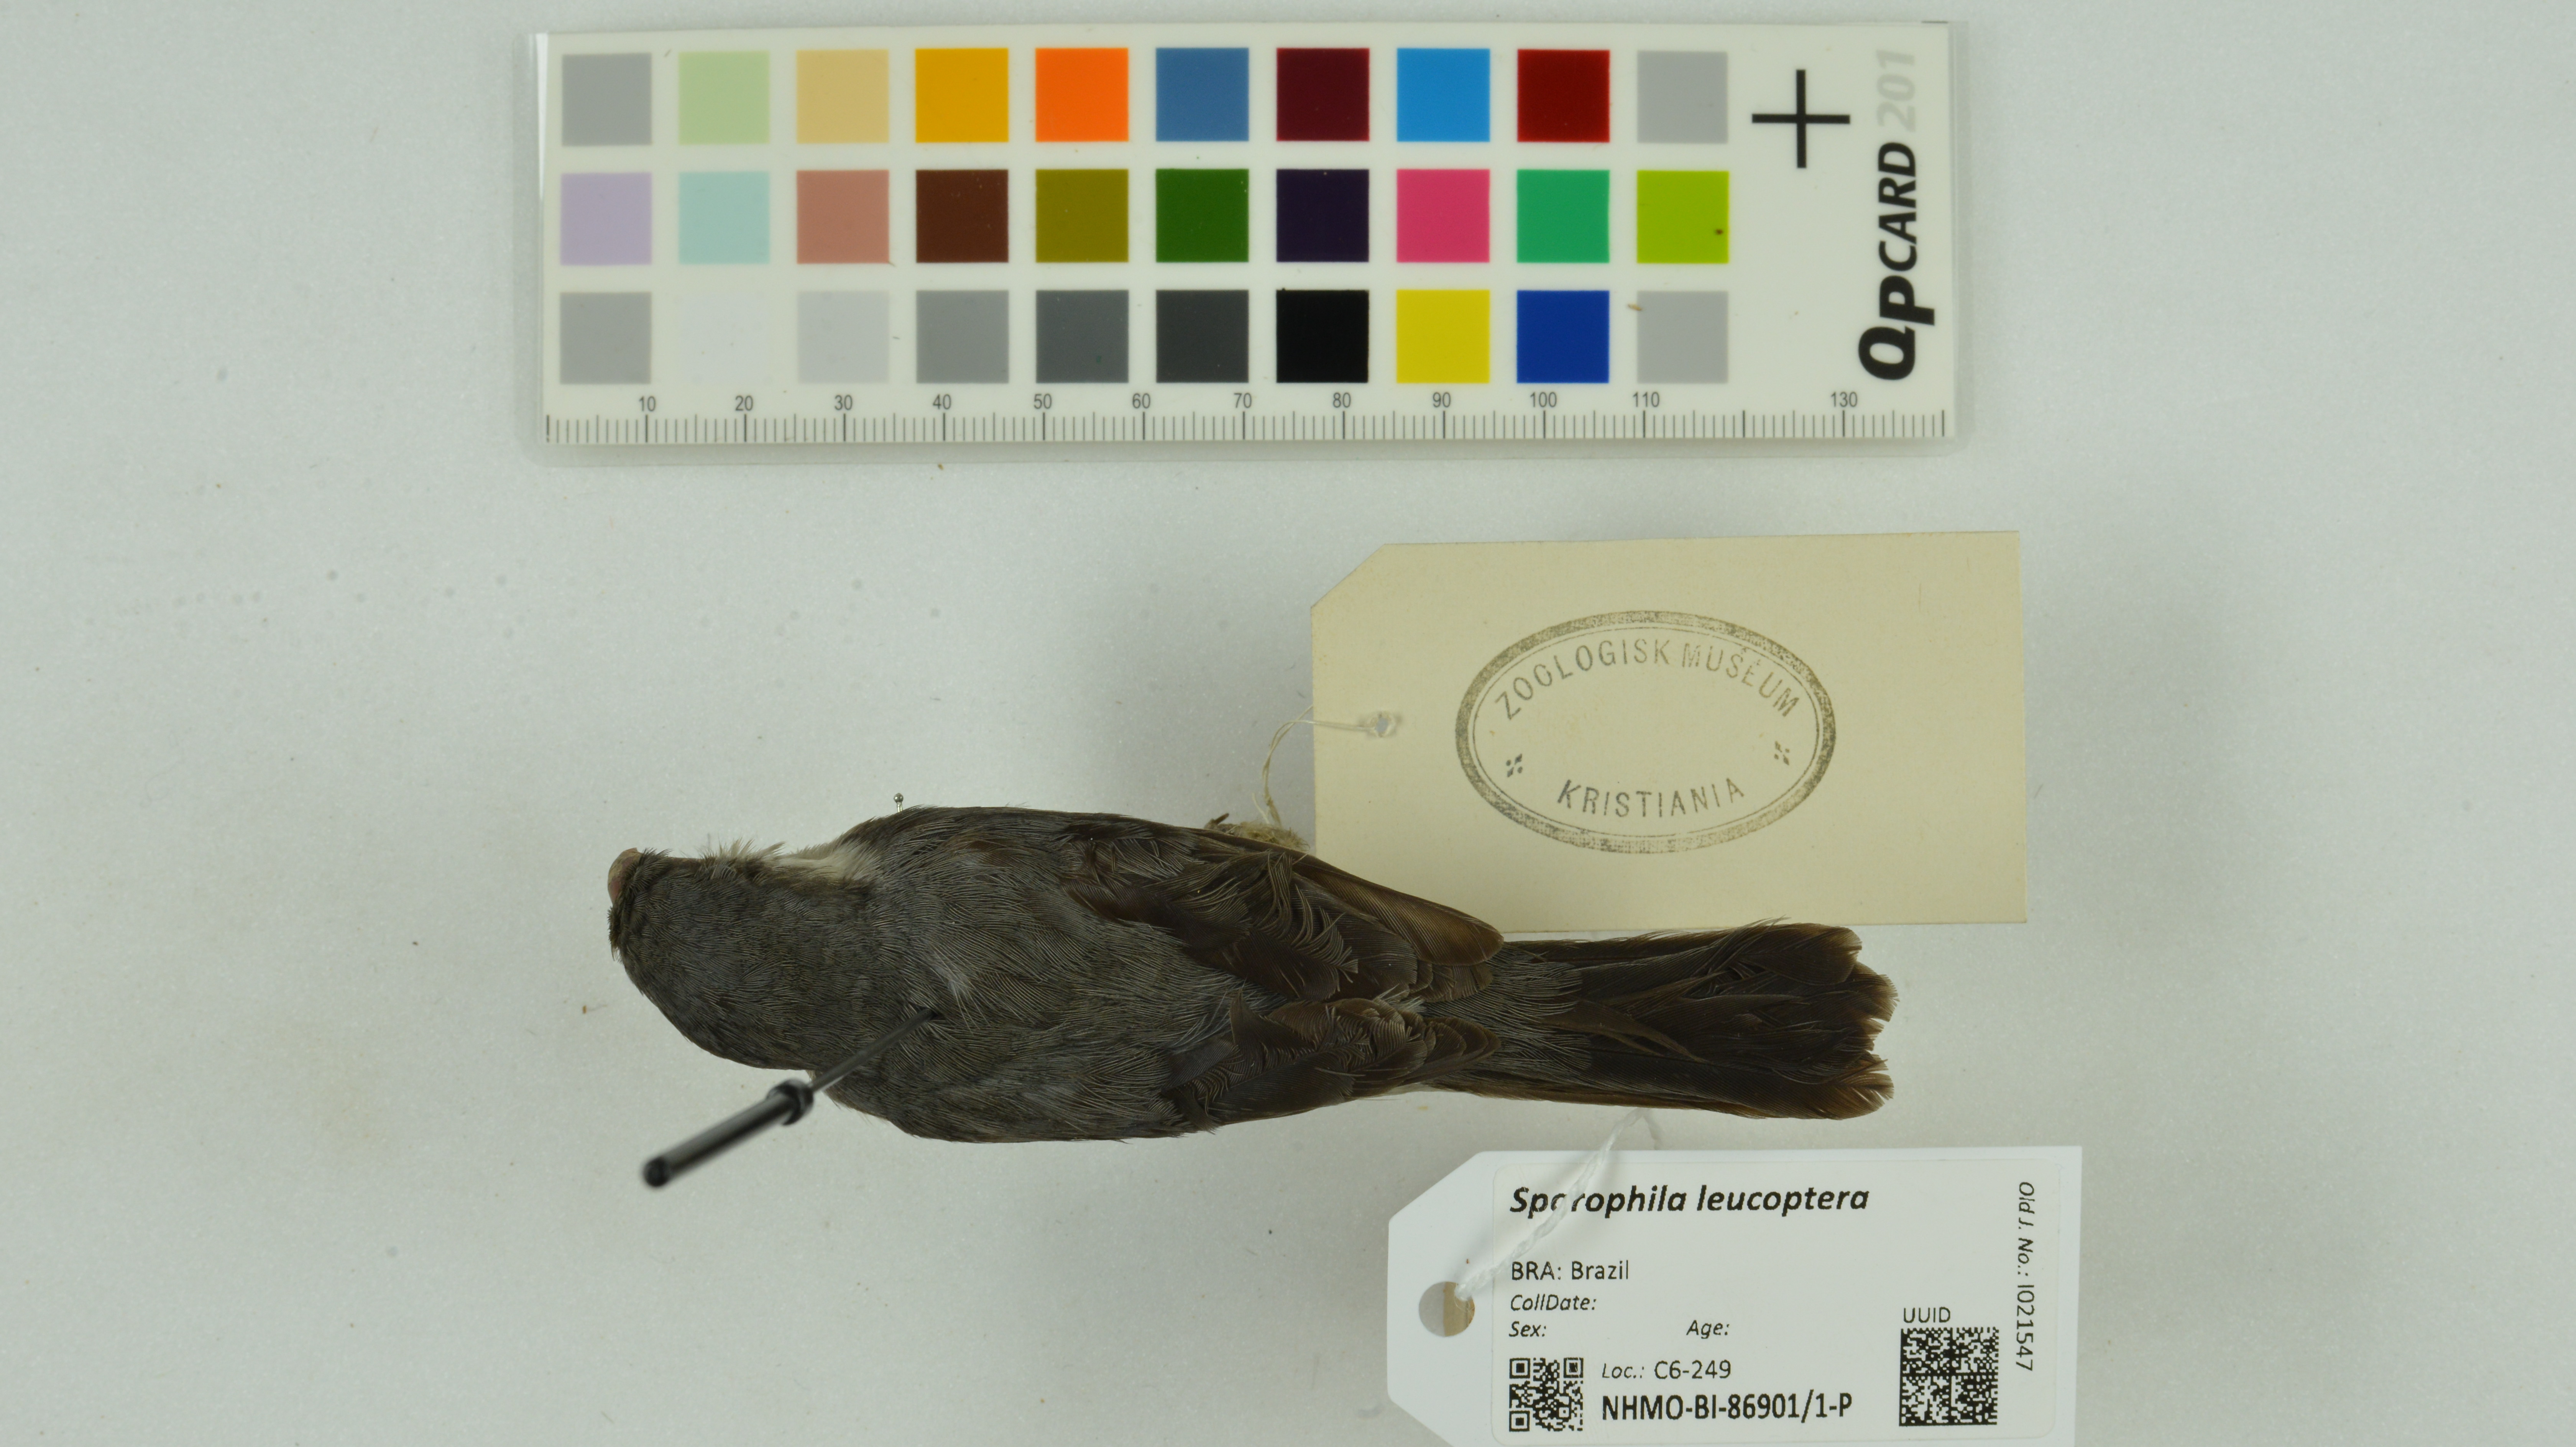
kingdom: Animalia
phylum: Chordata
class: Aves
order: Passeriformes
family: Thraupidae
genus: Sporophila
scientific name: Sporophila leucoptera
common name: White-bellied seedeater
